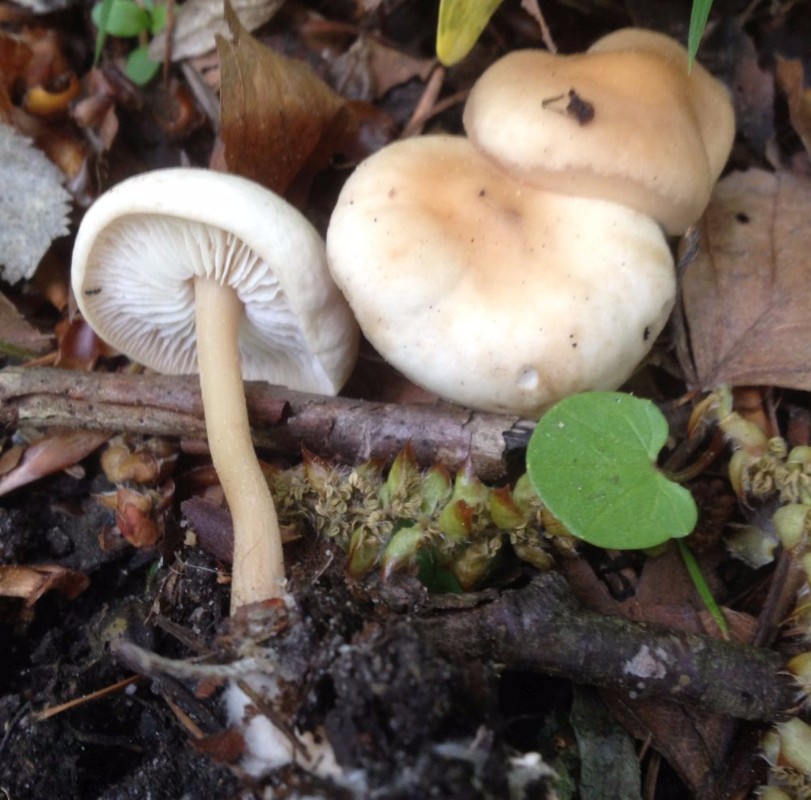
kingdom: Fungi
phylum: Basidiomycota
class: Agaricomycetes
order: Agaricales
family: Omphalotaceae
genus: Gymnopus
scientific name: Gymnopus aquosus
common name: bleg fladhat
